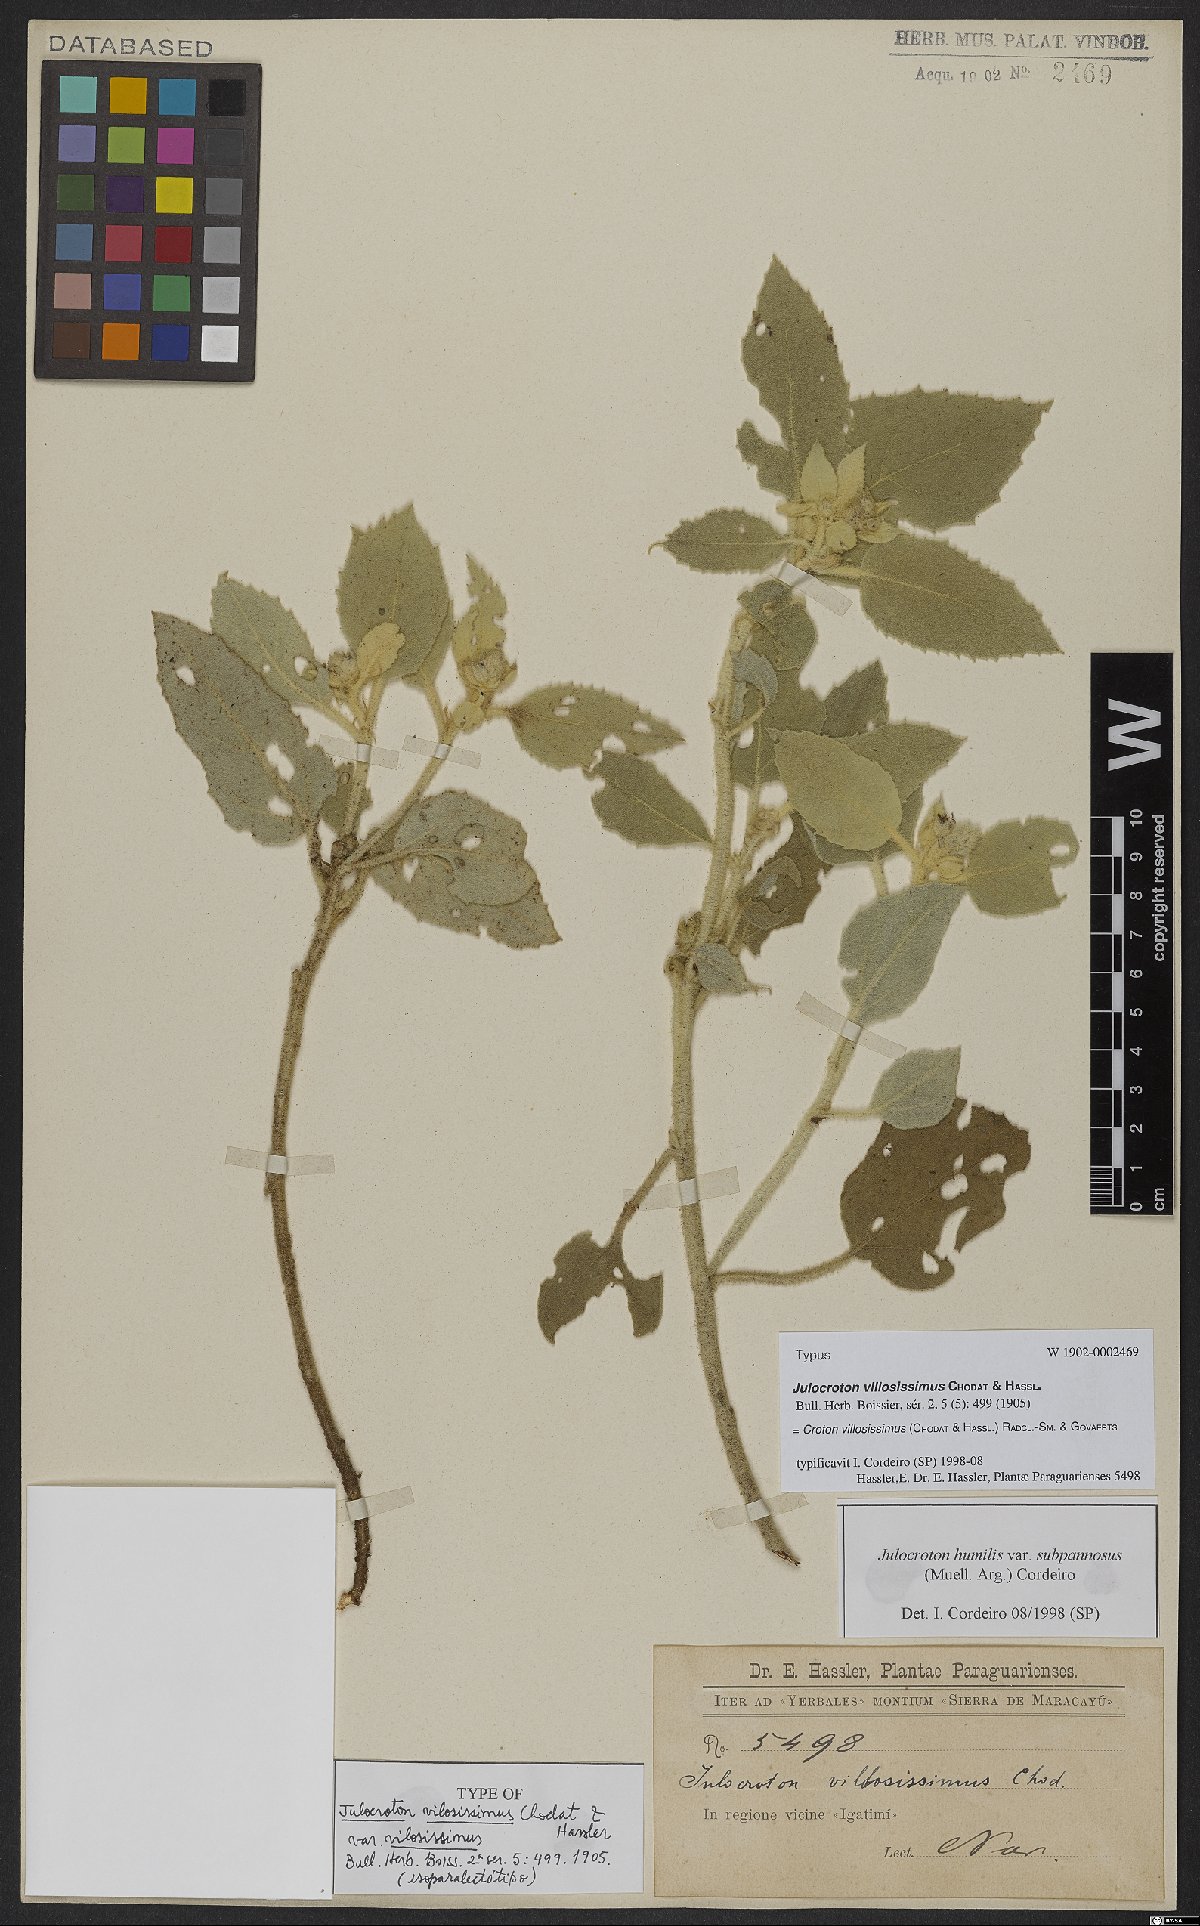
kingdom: Plantae
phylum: Tracheophyta
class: Magnoliopsida
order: Malpighiales
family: Euphorbiaceae
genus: Croton
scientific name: Croton villosissimus
